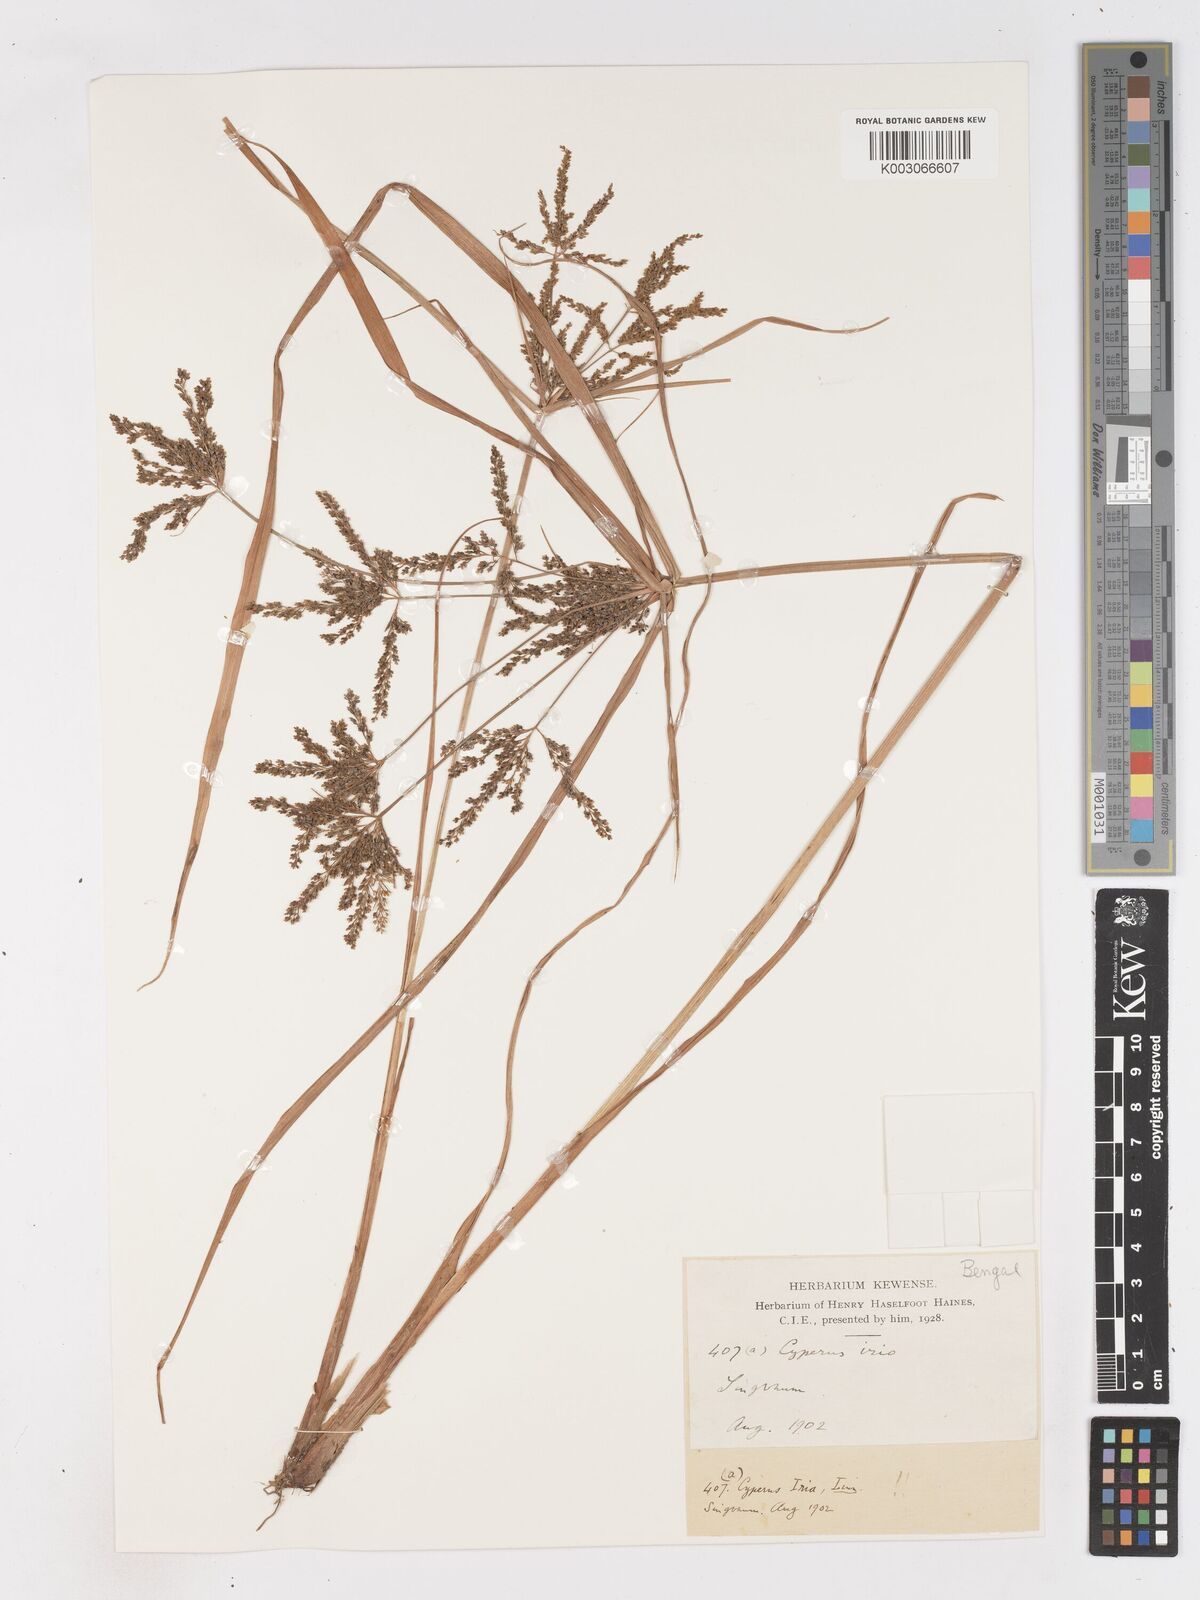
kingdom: Plantae
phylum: Tracheophyta
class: Liliopsida
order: Poales
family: Cyperaceae
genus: Cyperus
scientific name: Cyperus microiria
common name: Asian flatsedge
